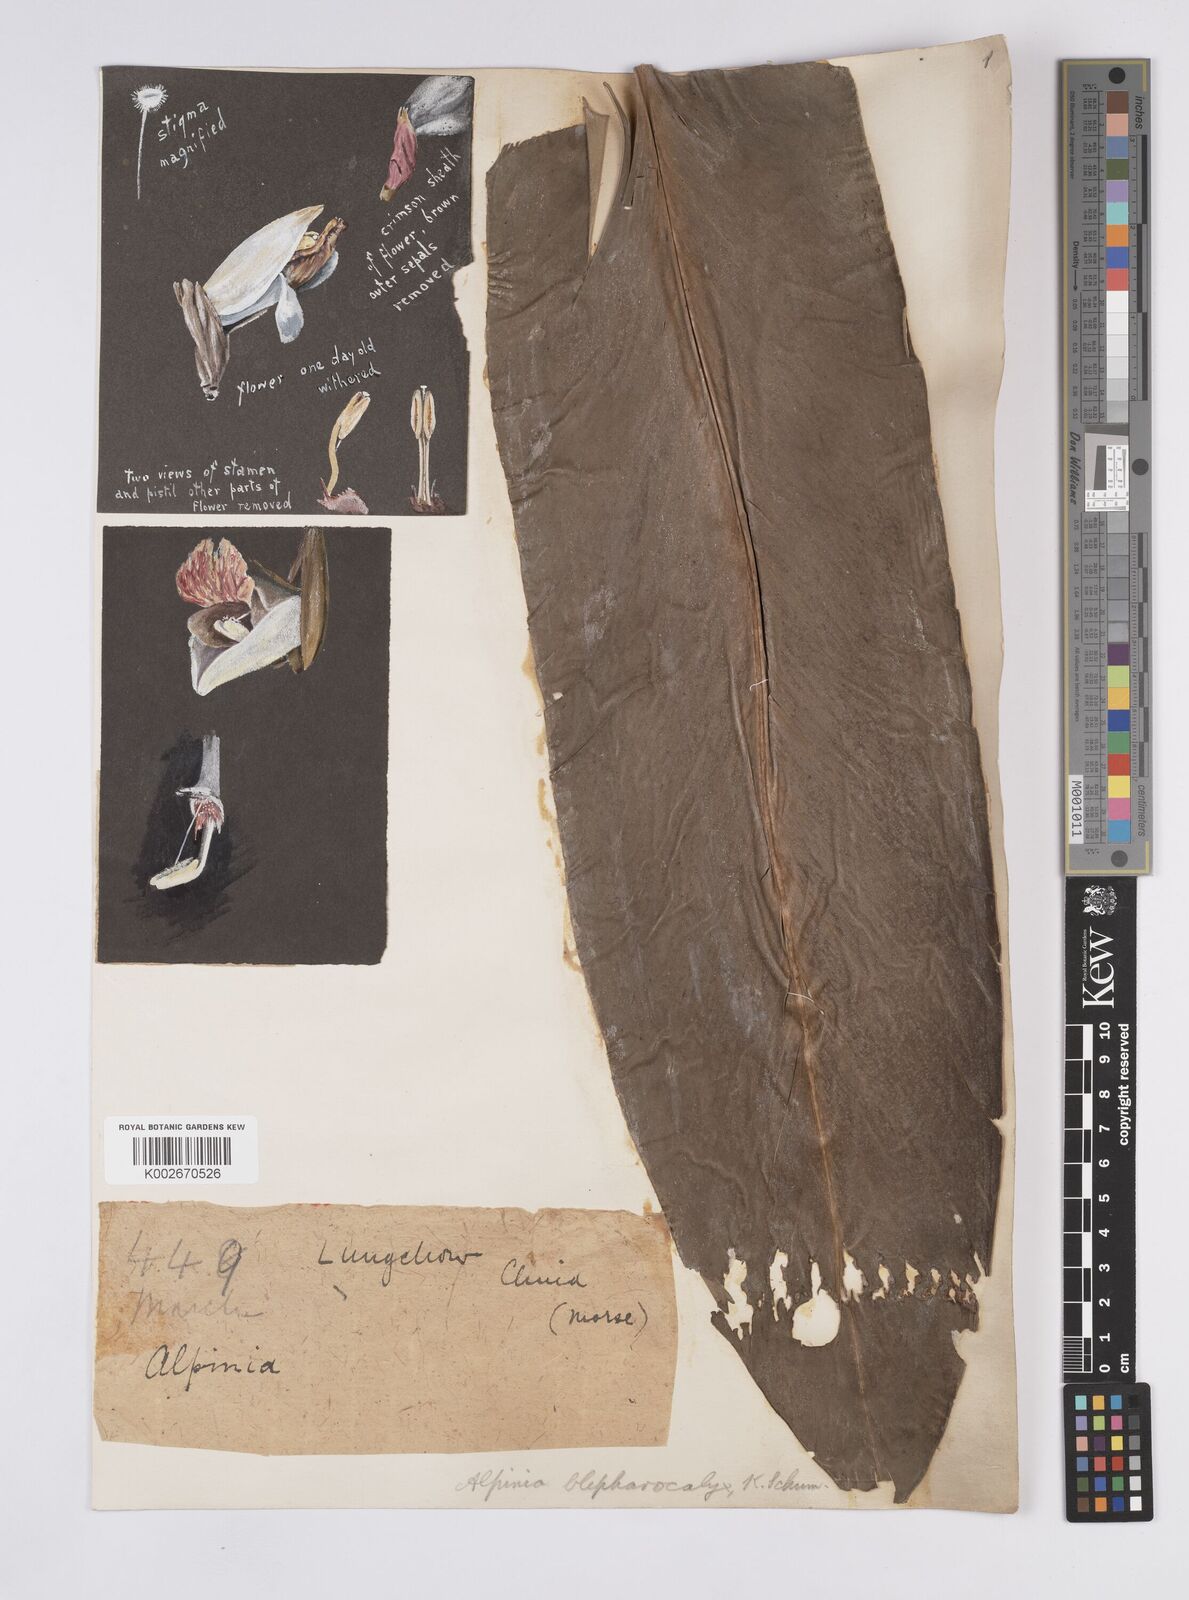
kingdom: Plantae
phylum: Tracheophyta
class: Liliopsida
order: Zingiberales
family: Zingiberaceae
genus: Alpinia
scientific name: Alpinia roxburghii
